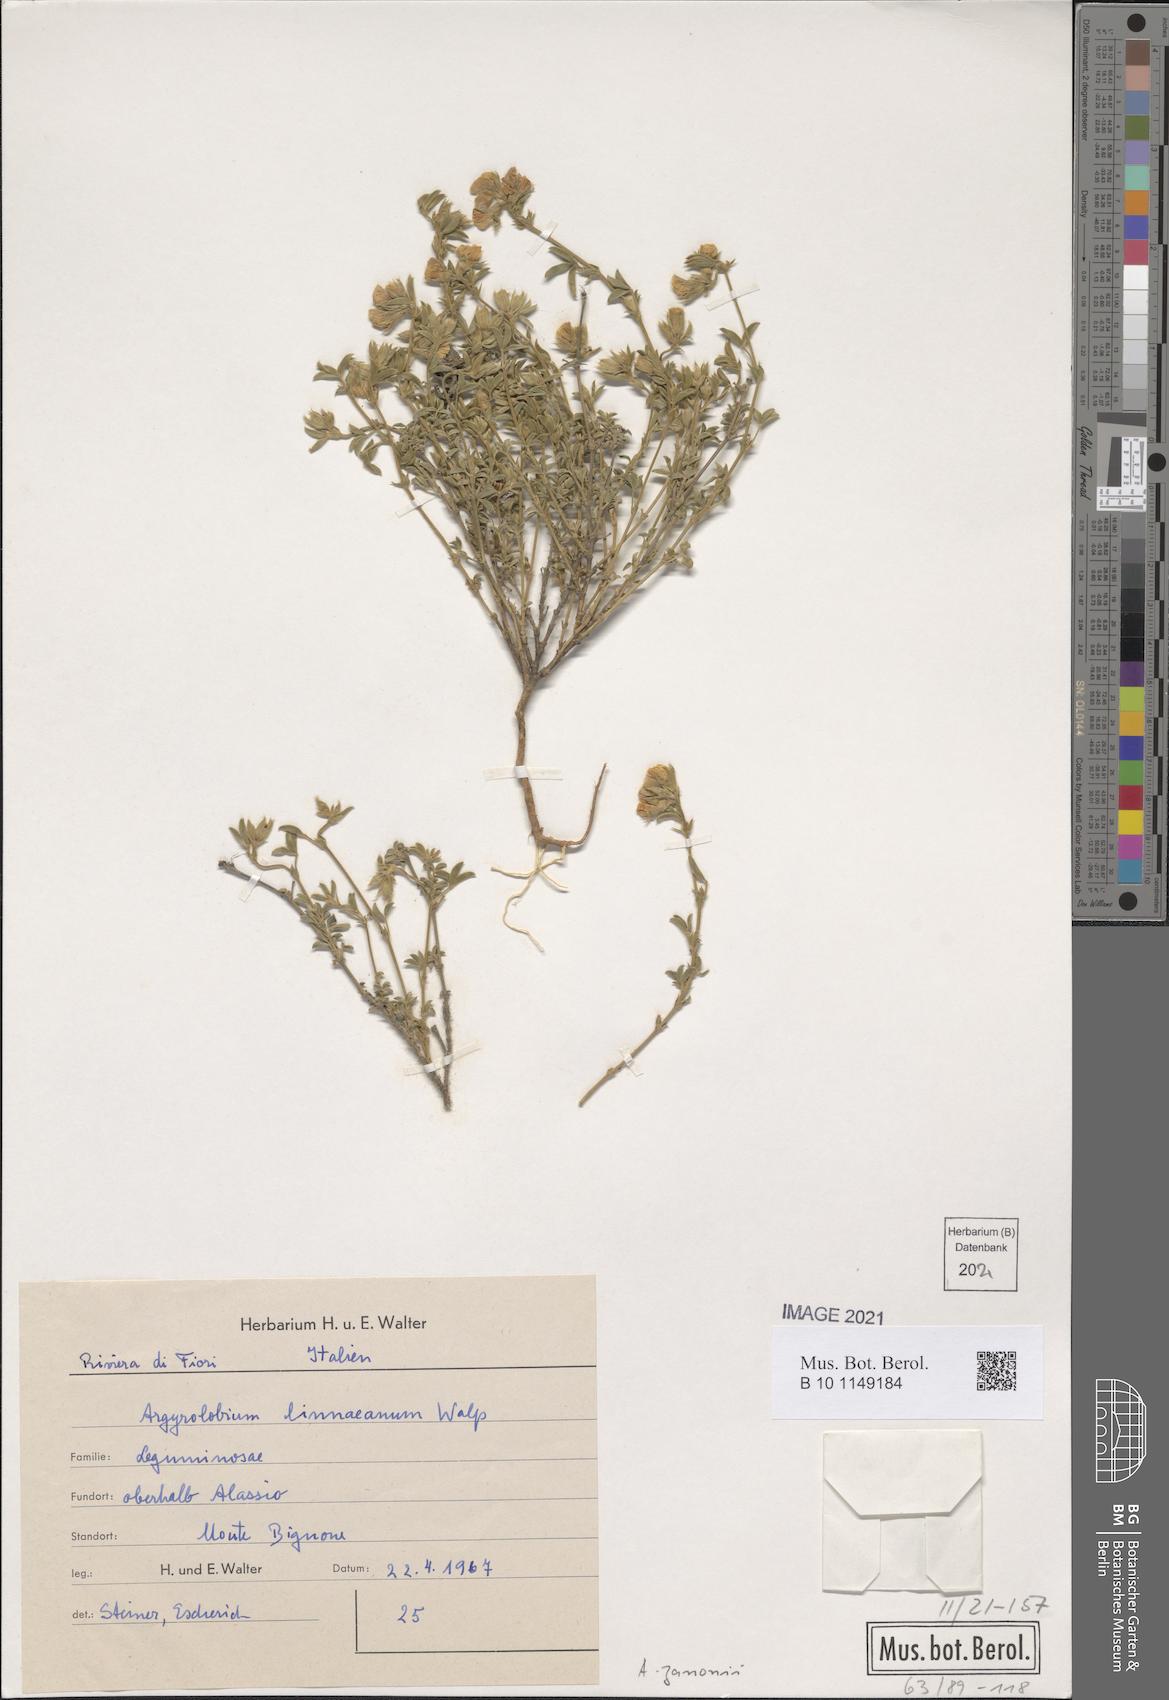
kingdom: Plantae
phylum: Tracheophyta
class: Magnoliopsida
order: Fabales
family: Fabaceae
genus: Argyrolobium
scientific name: Argyrolobium zanonii
